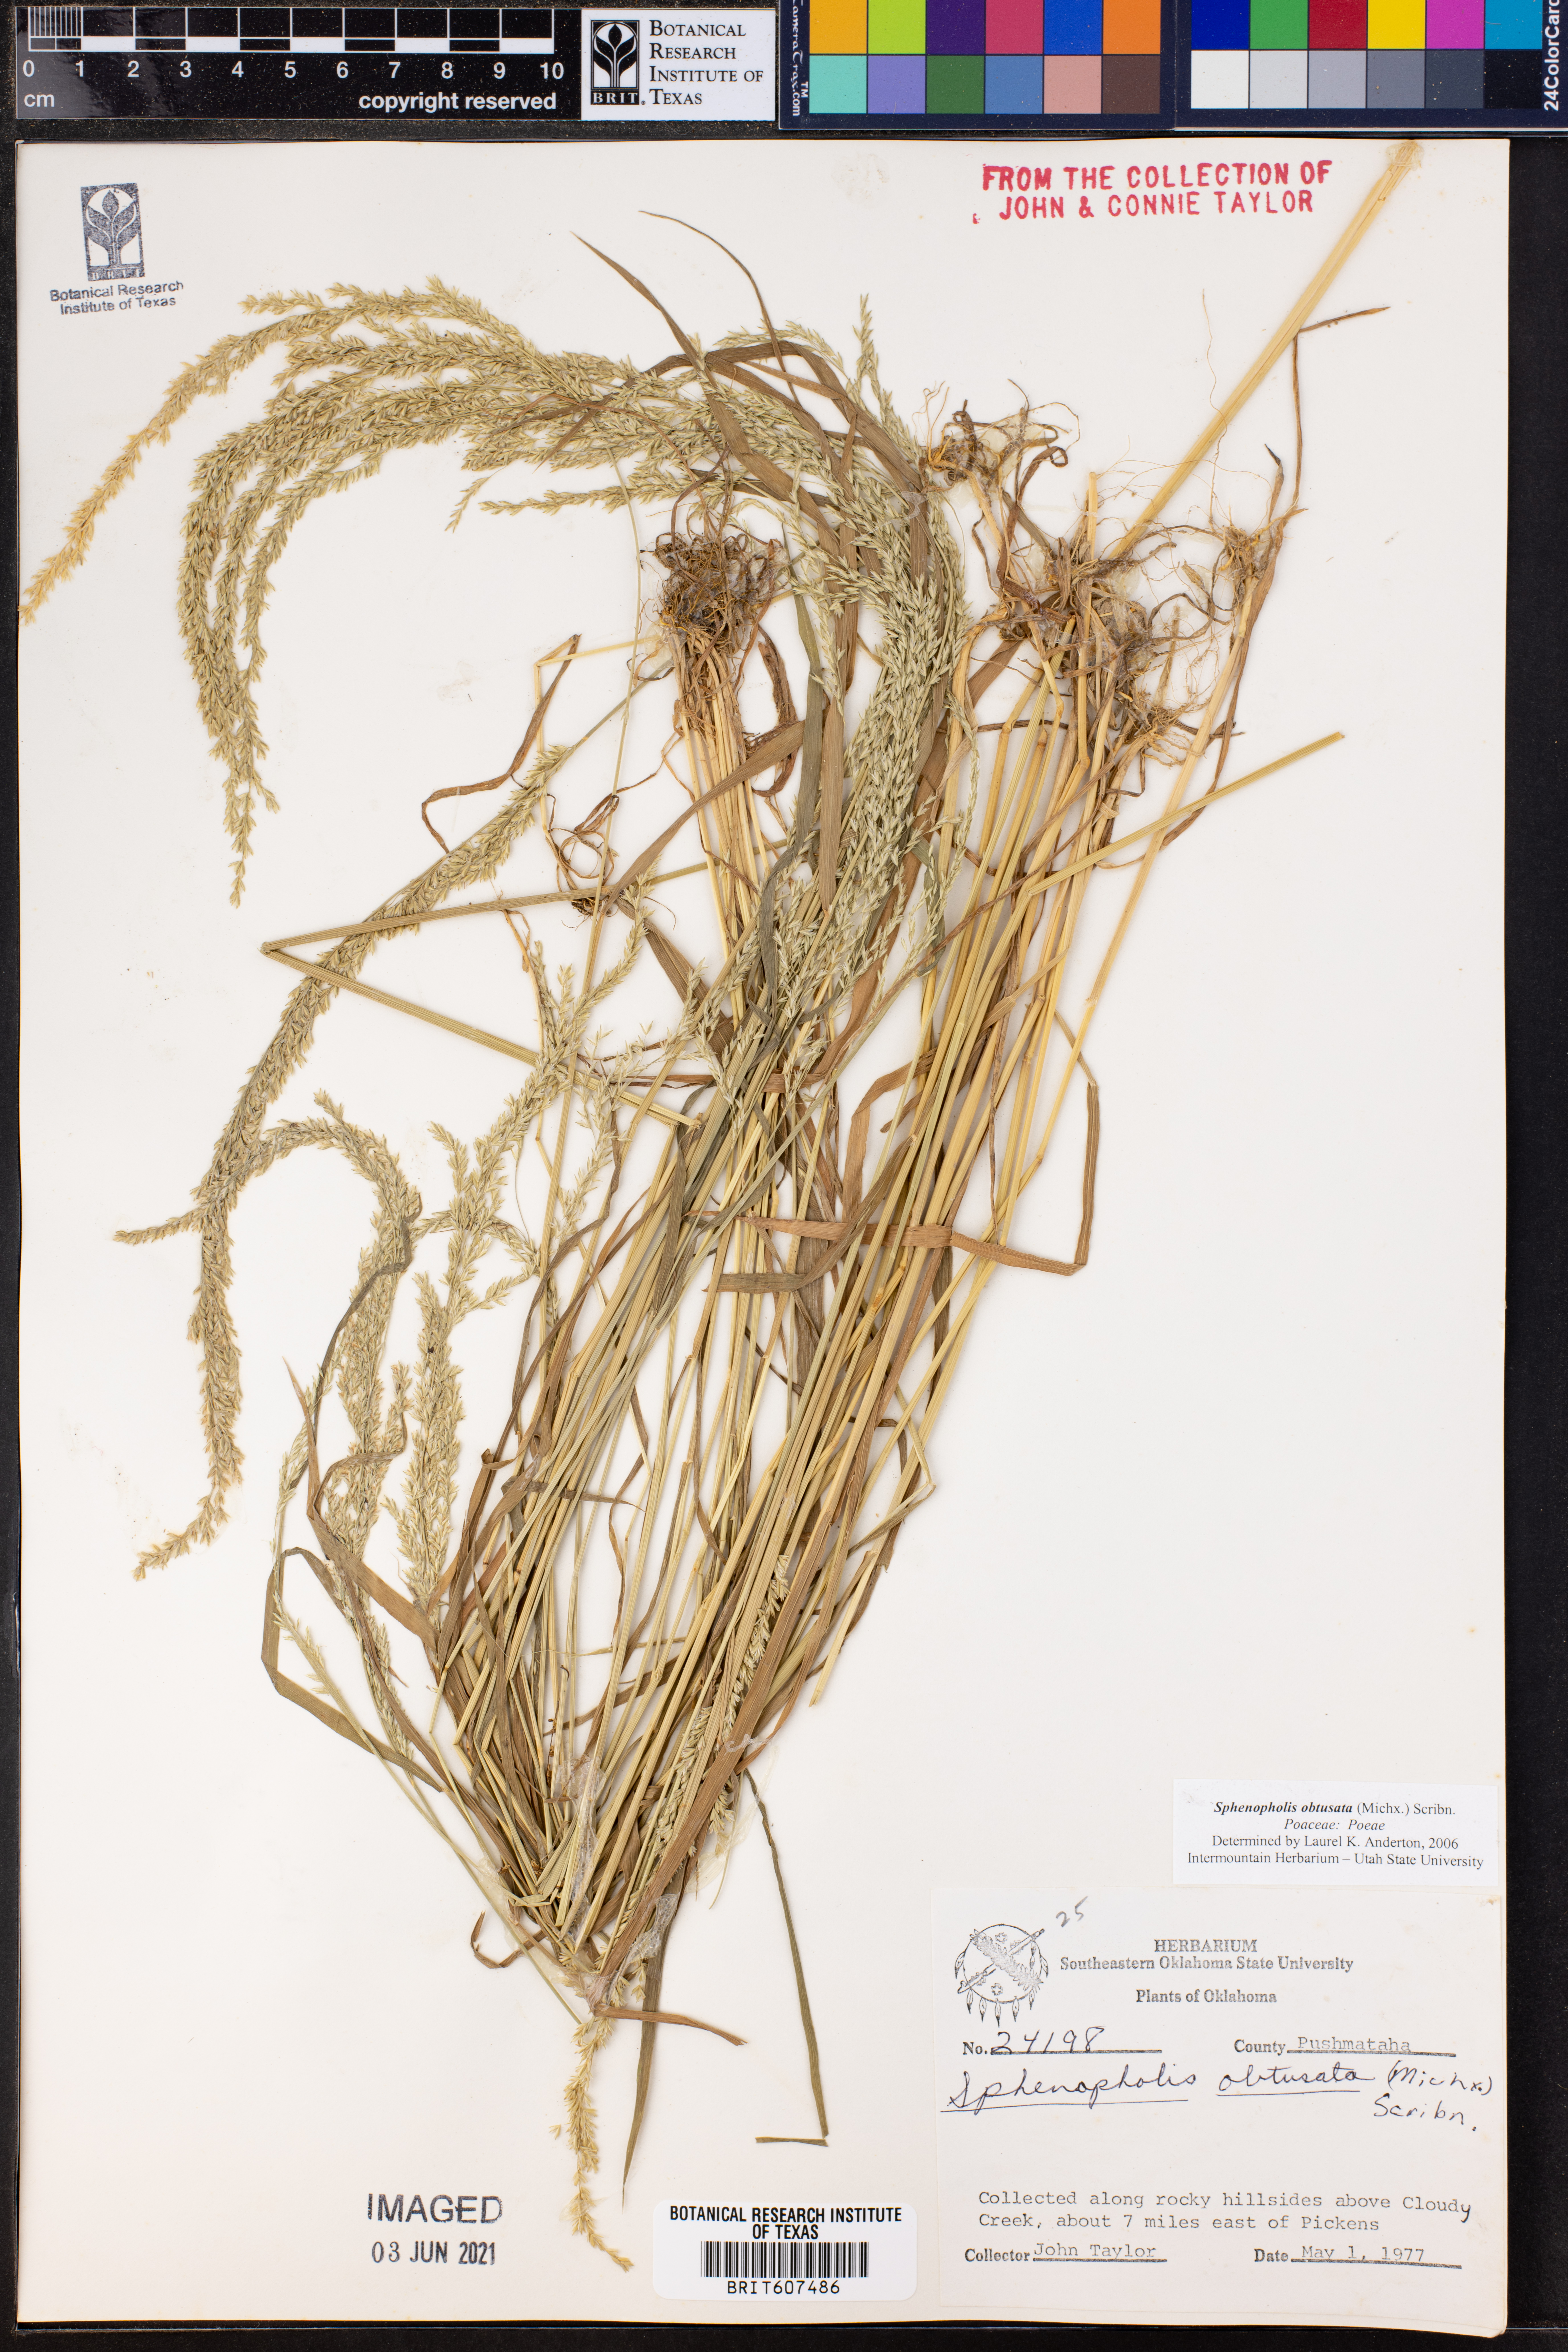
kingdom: Plantae
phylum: Tracheophyta
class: Liliopsida
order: Poales
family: Poaceae
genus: Sphenopholis
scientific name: Sphenopholis obtusata
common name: Prairie grass
